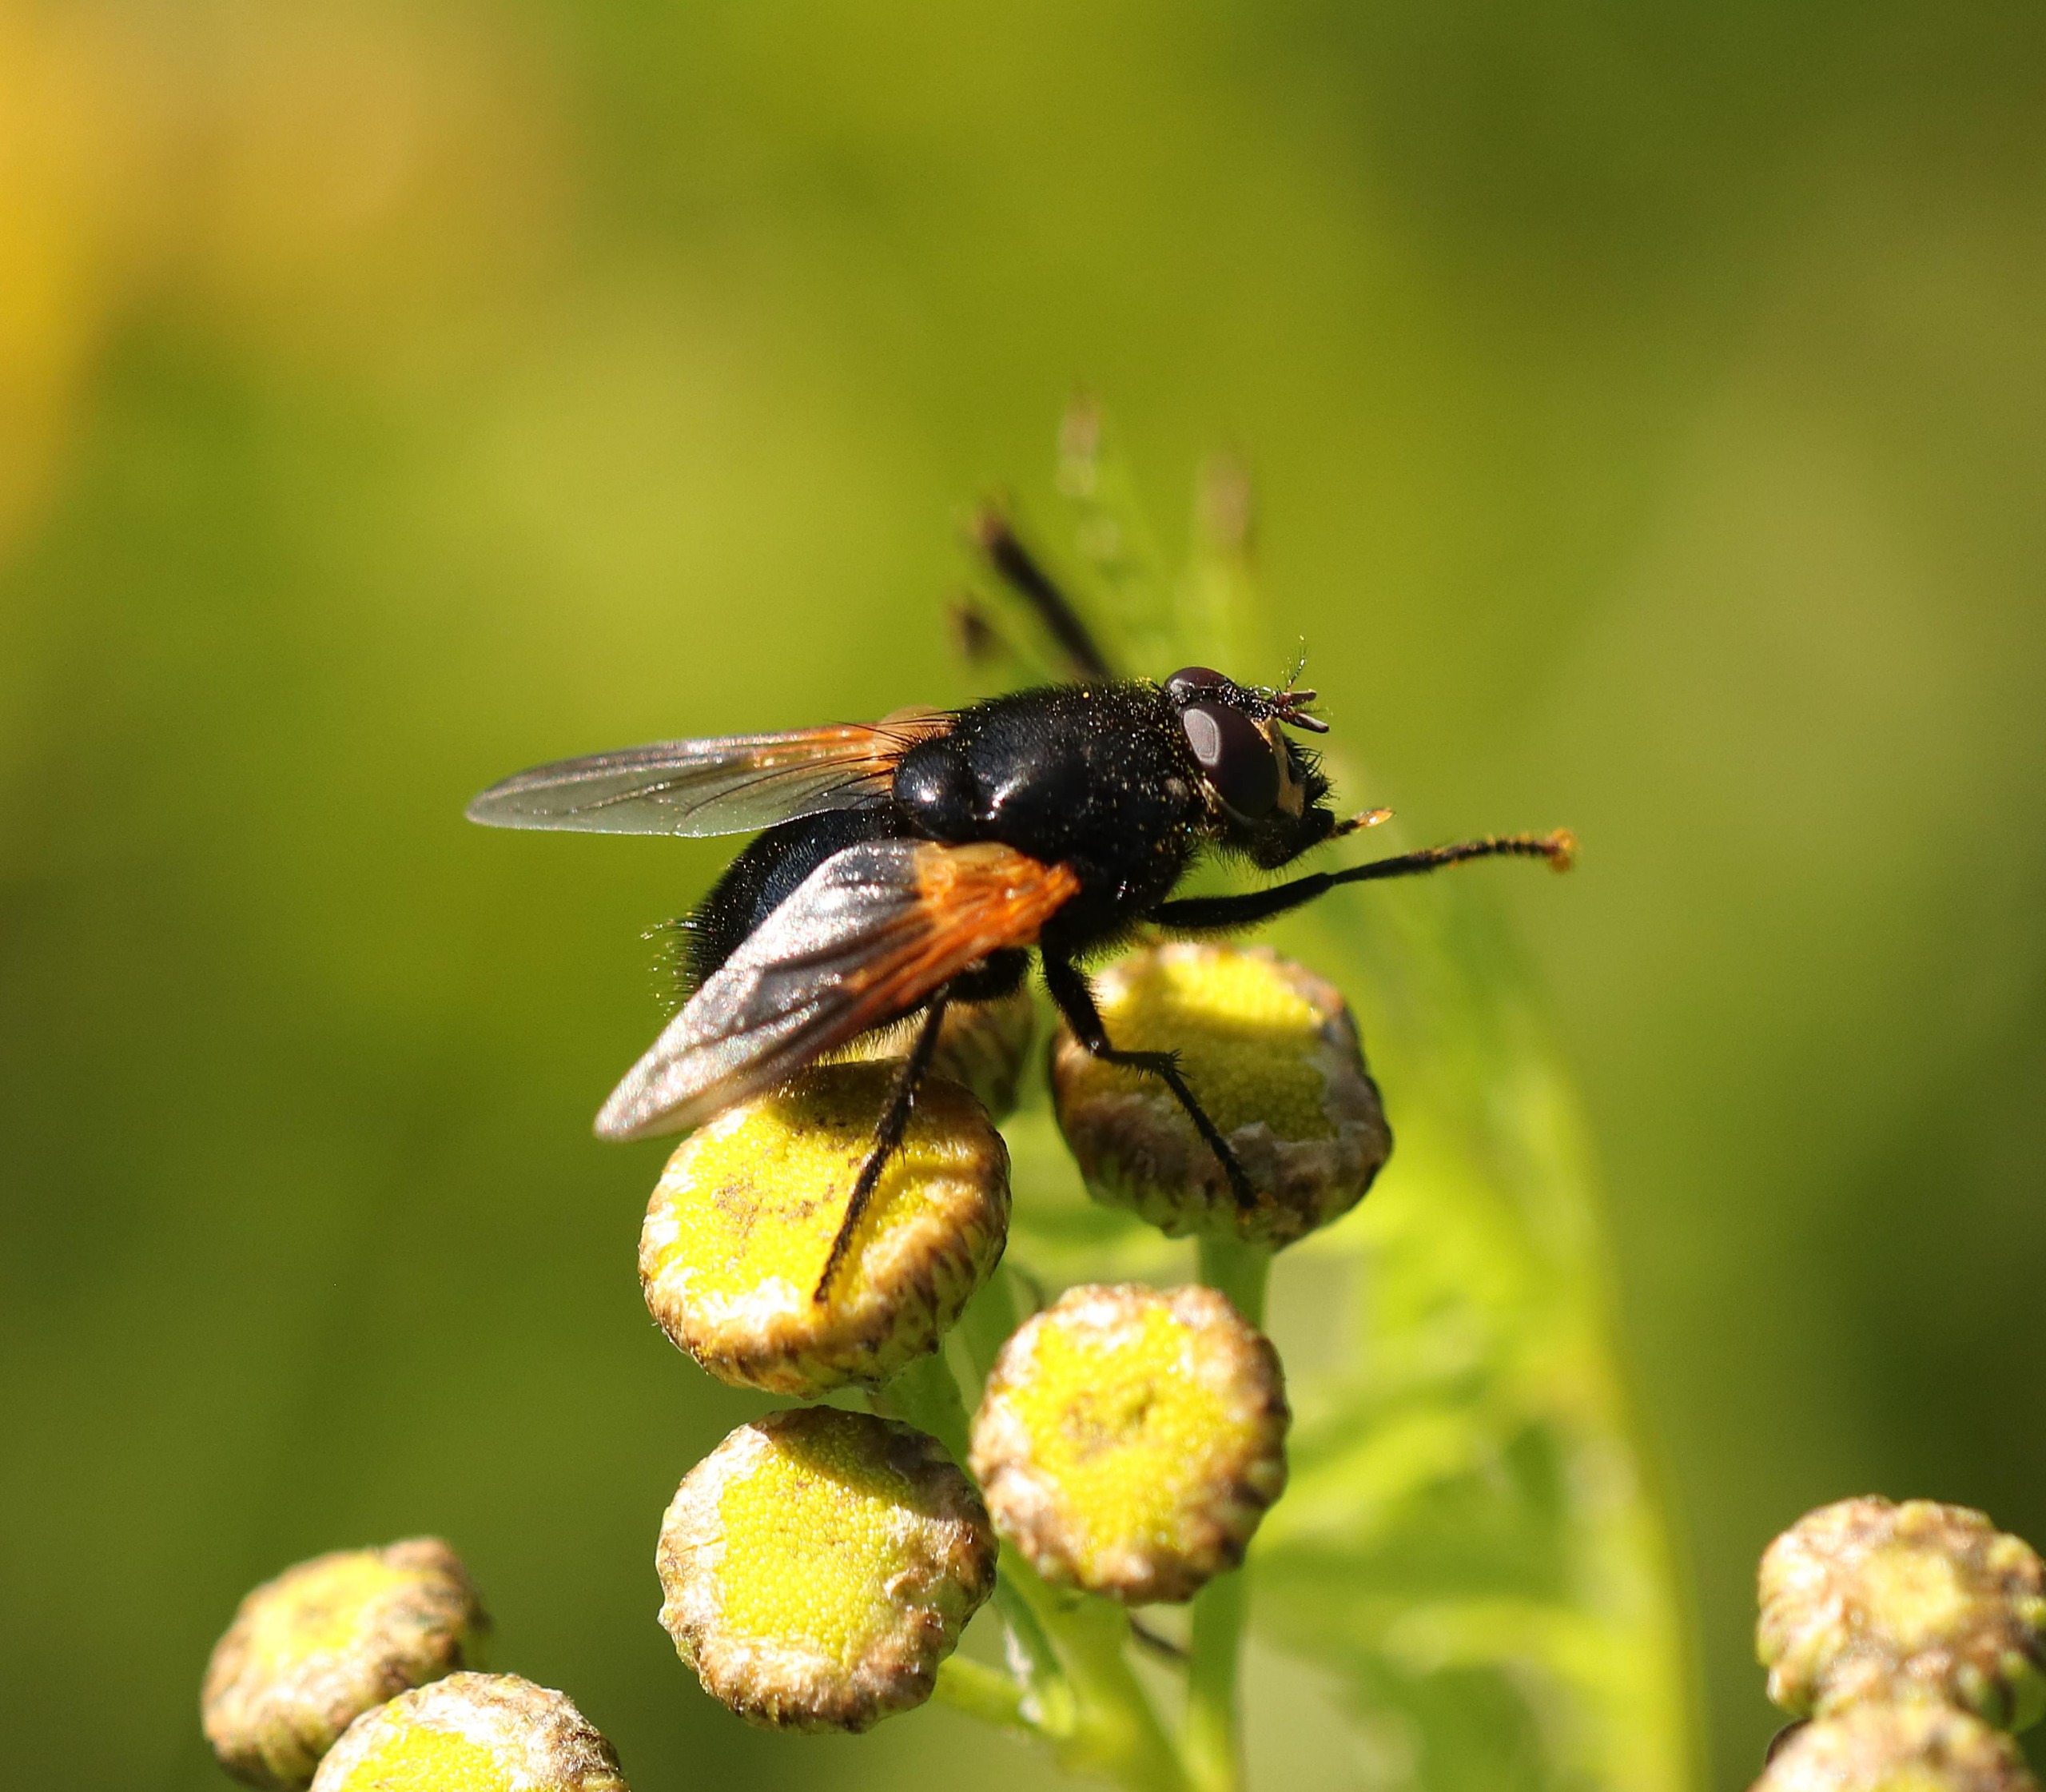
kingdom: Animalia
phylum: Arthropoda
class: Insecta
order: Diptera
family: Muscidae
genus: Mesembrina
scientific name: Mesembrina meridiana
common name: Gulvinget flue
